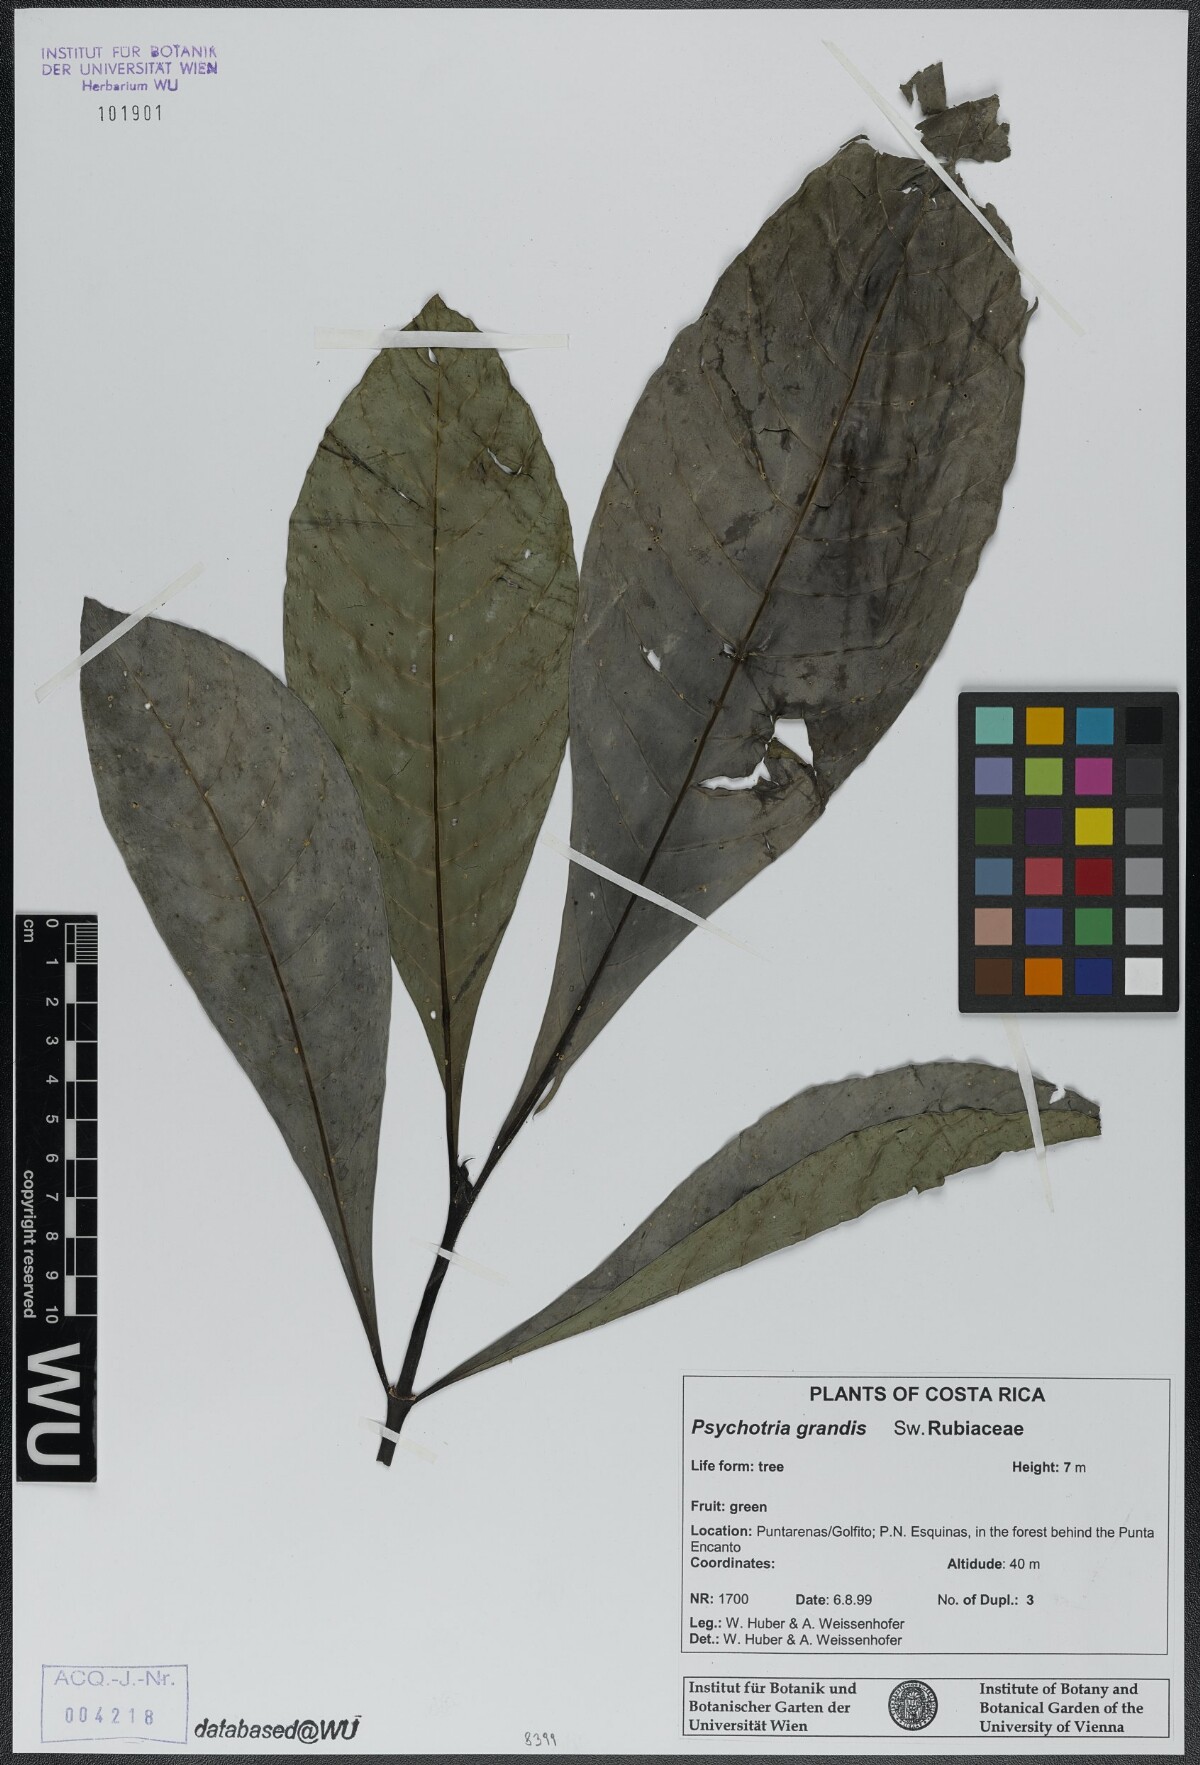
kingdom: Plantae
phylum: Tracheophyta
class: Magnoliopsida
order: Gentianales
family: Rubiaceae
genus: Psychotria
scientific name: Psychotria grandis
